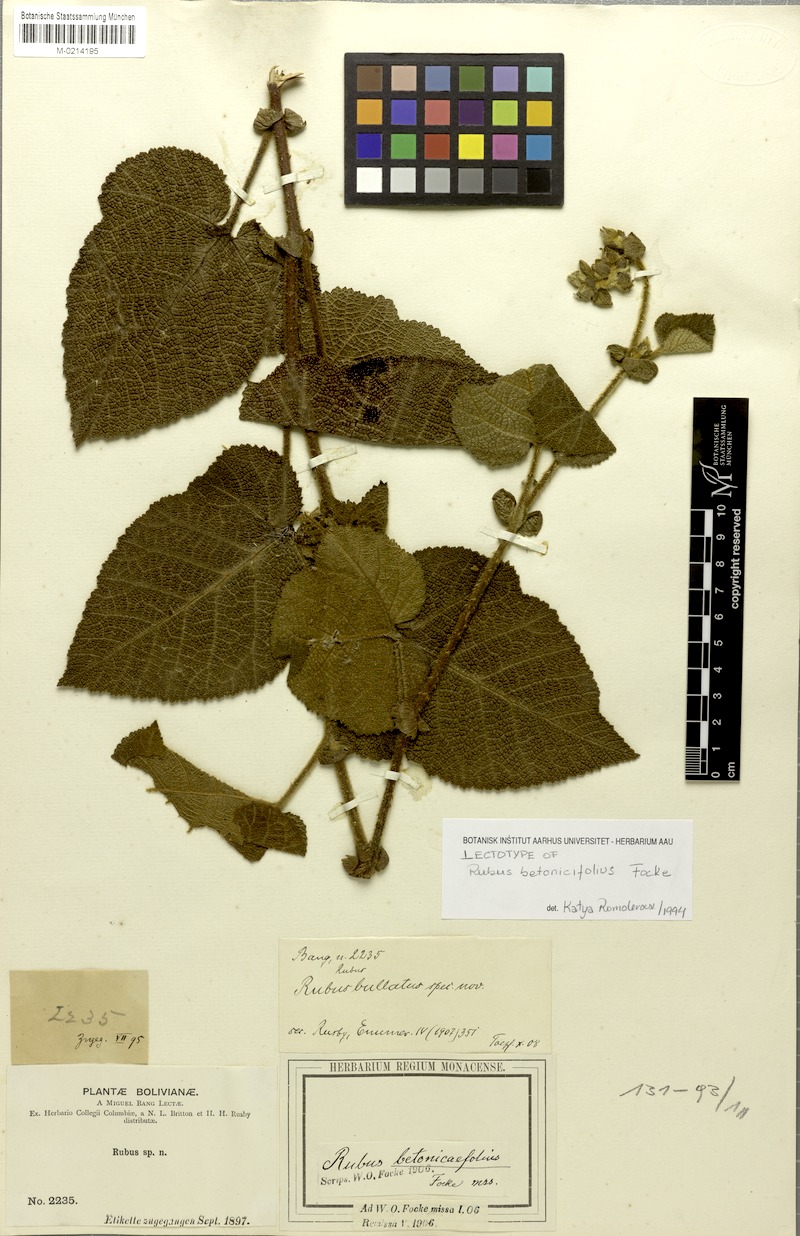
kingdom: Plantae
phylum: Tracheophyta
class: Magnoliopsida
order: Rosales
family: Rosaceae
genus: Rubus
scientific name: Rubus betonicifolius
